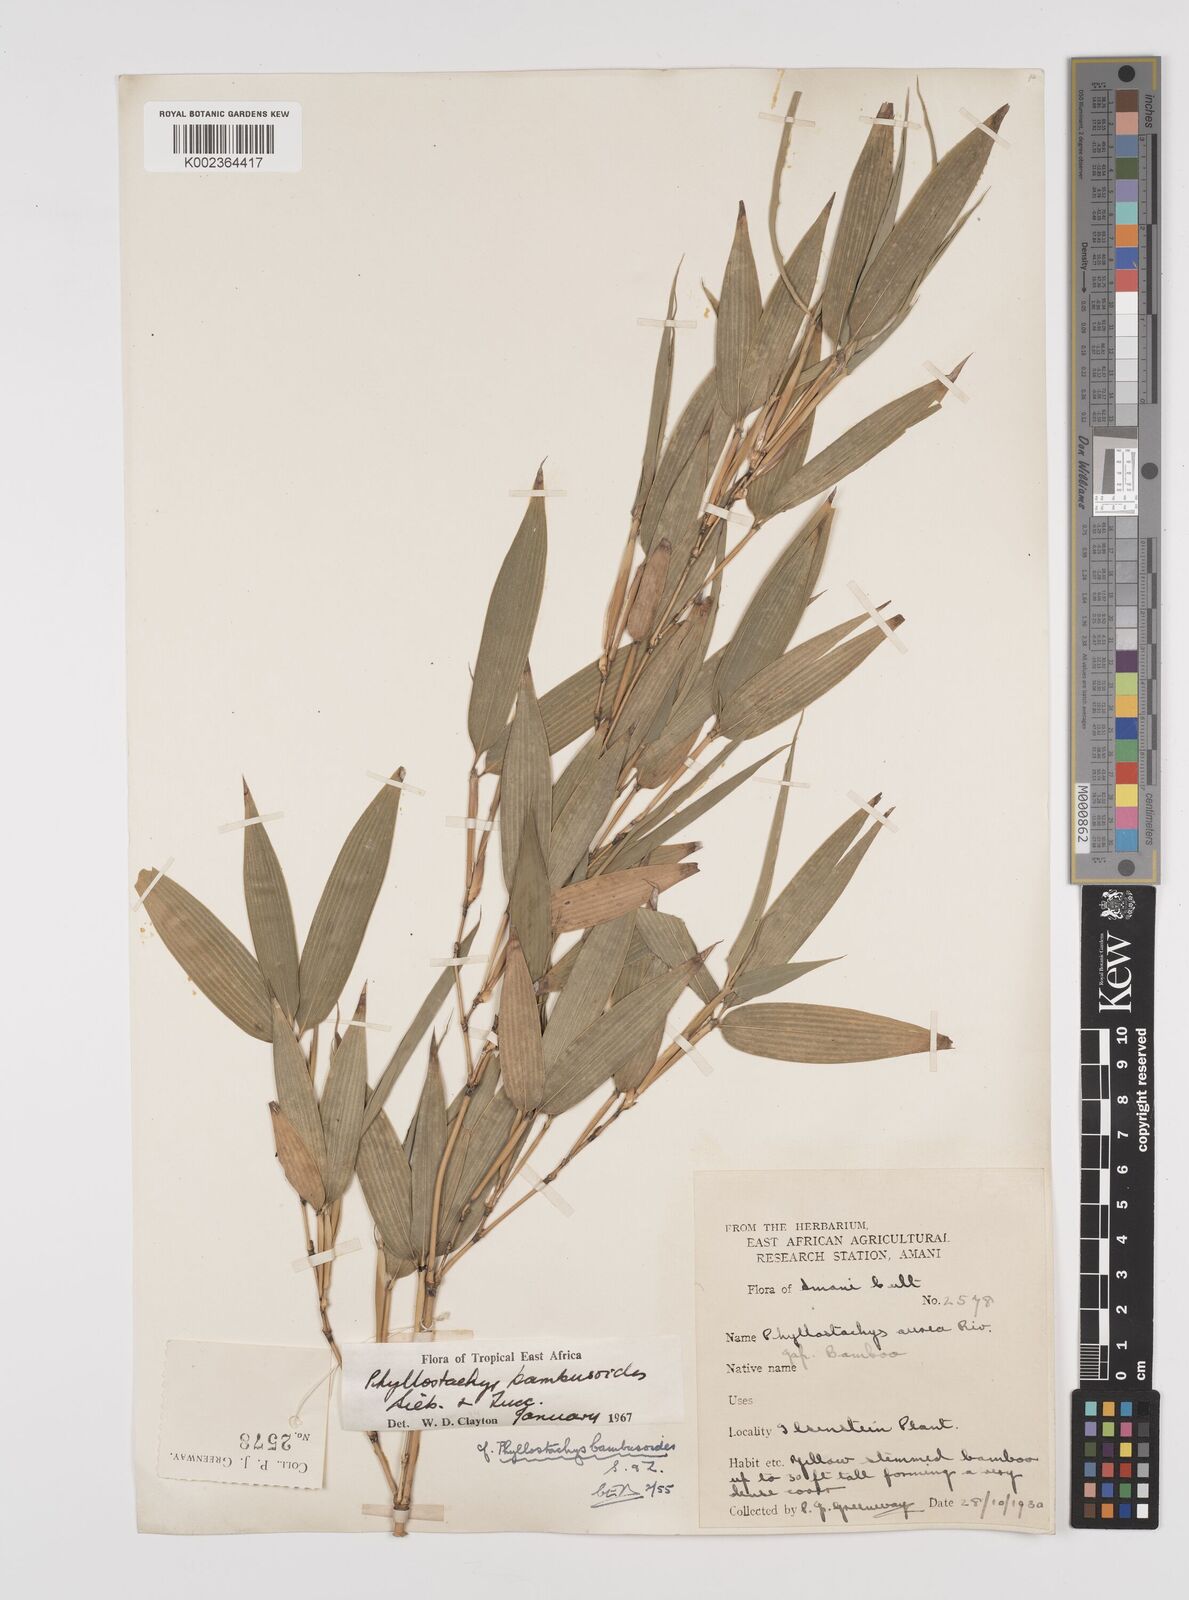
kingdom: Plantae
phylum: Tracheophyta
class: Liliopsida
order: Poales
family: Poaceae
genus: Phyllostachys
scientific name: Phyllostachys reticulata
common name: Bamboo
